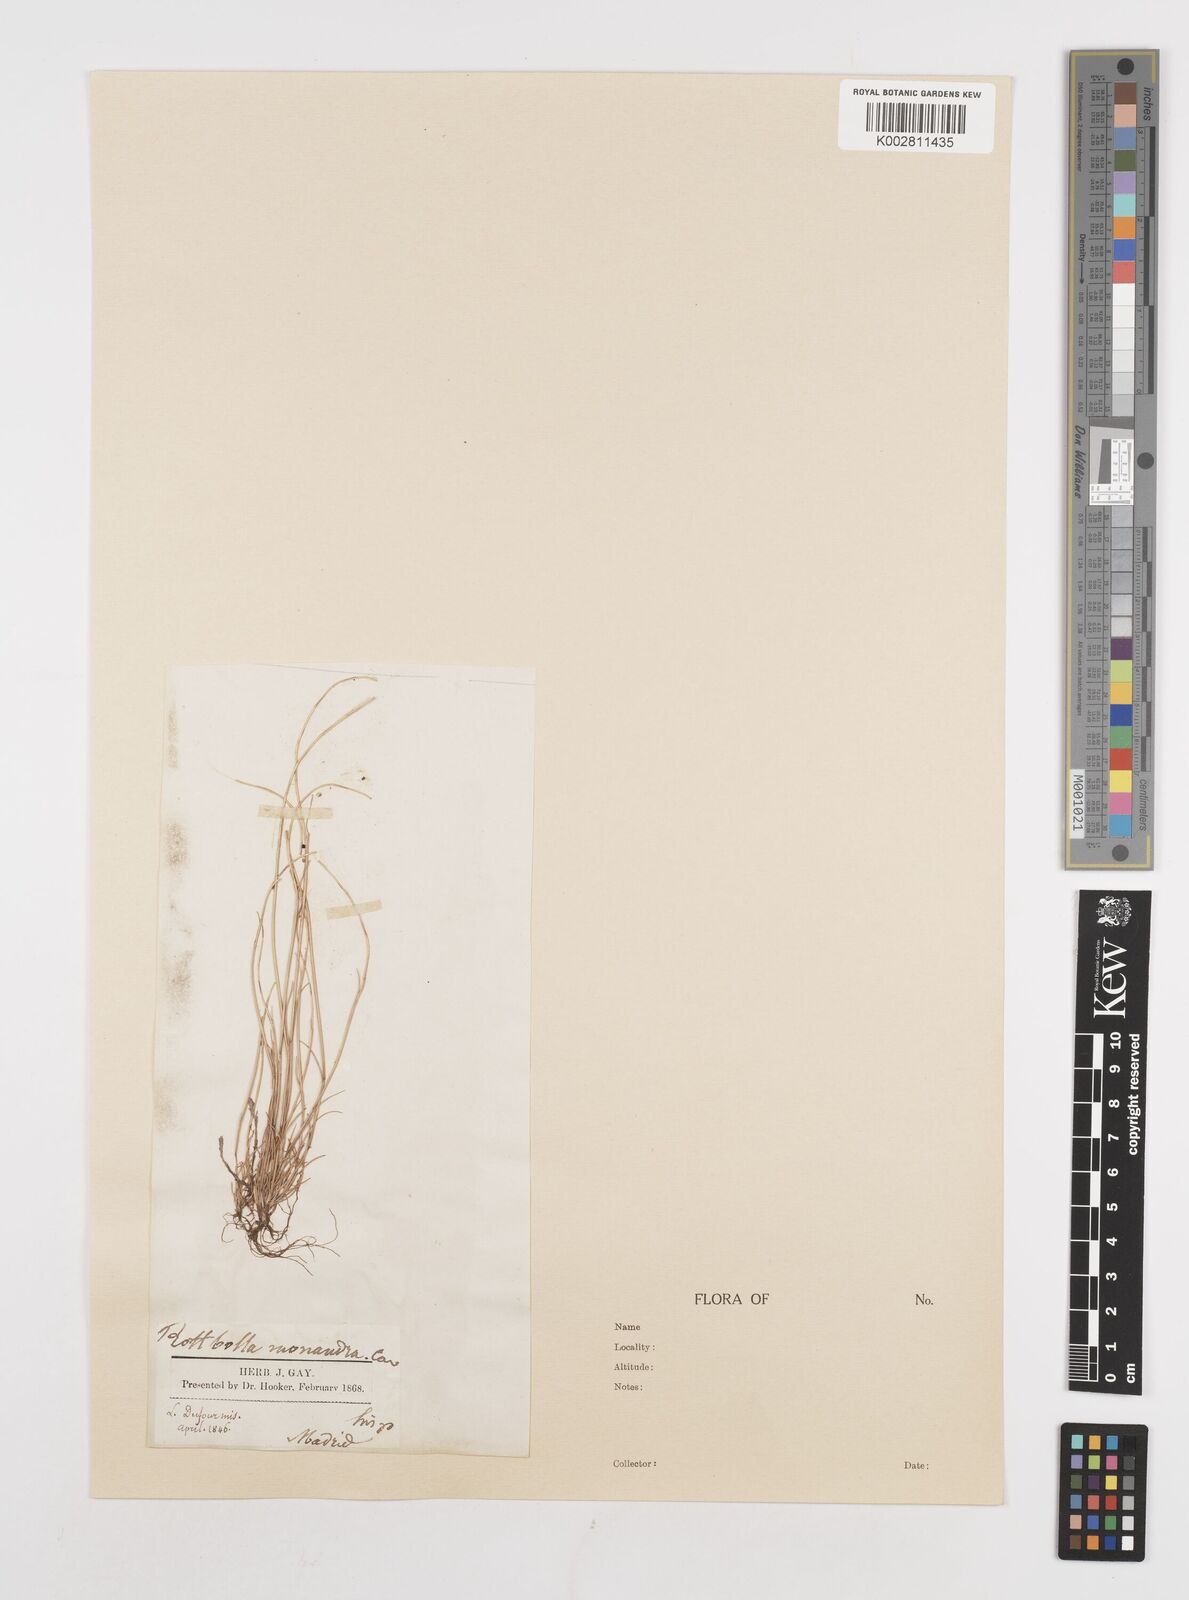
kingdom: Plantae
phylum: Tracheophyta
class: Liliopsida
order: Poales
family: Poaceae
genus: Festuca
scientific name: Festuca incurva
